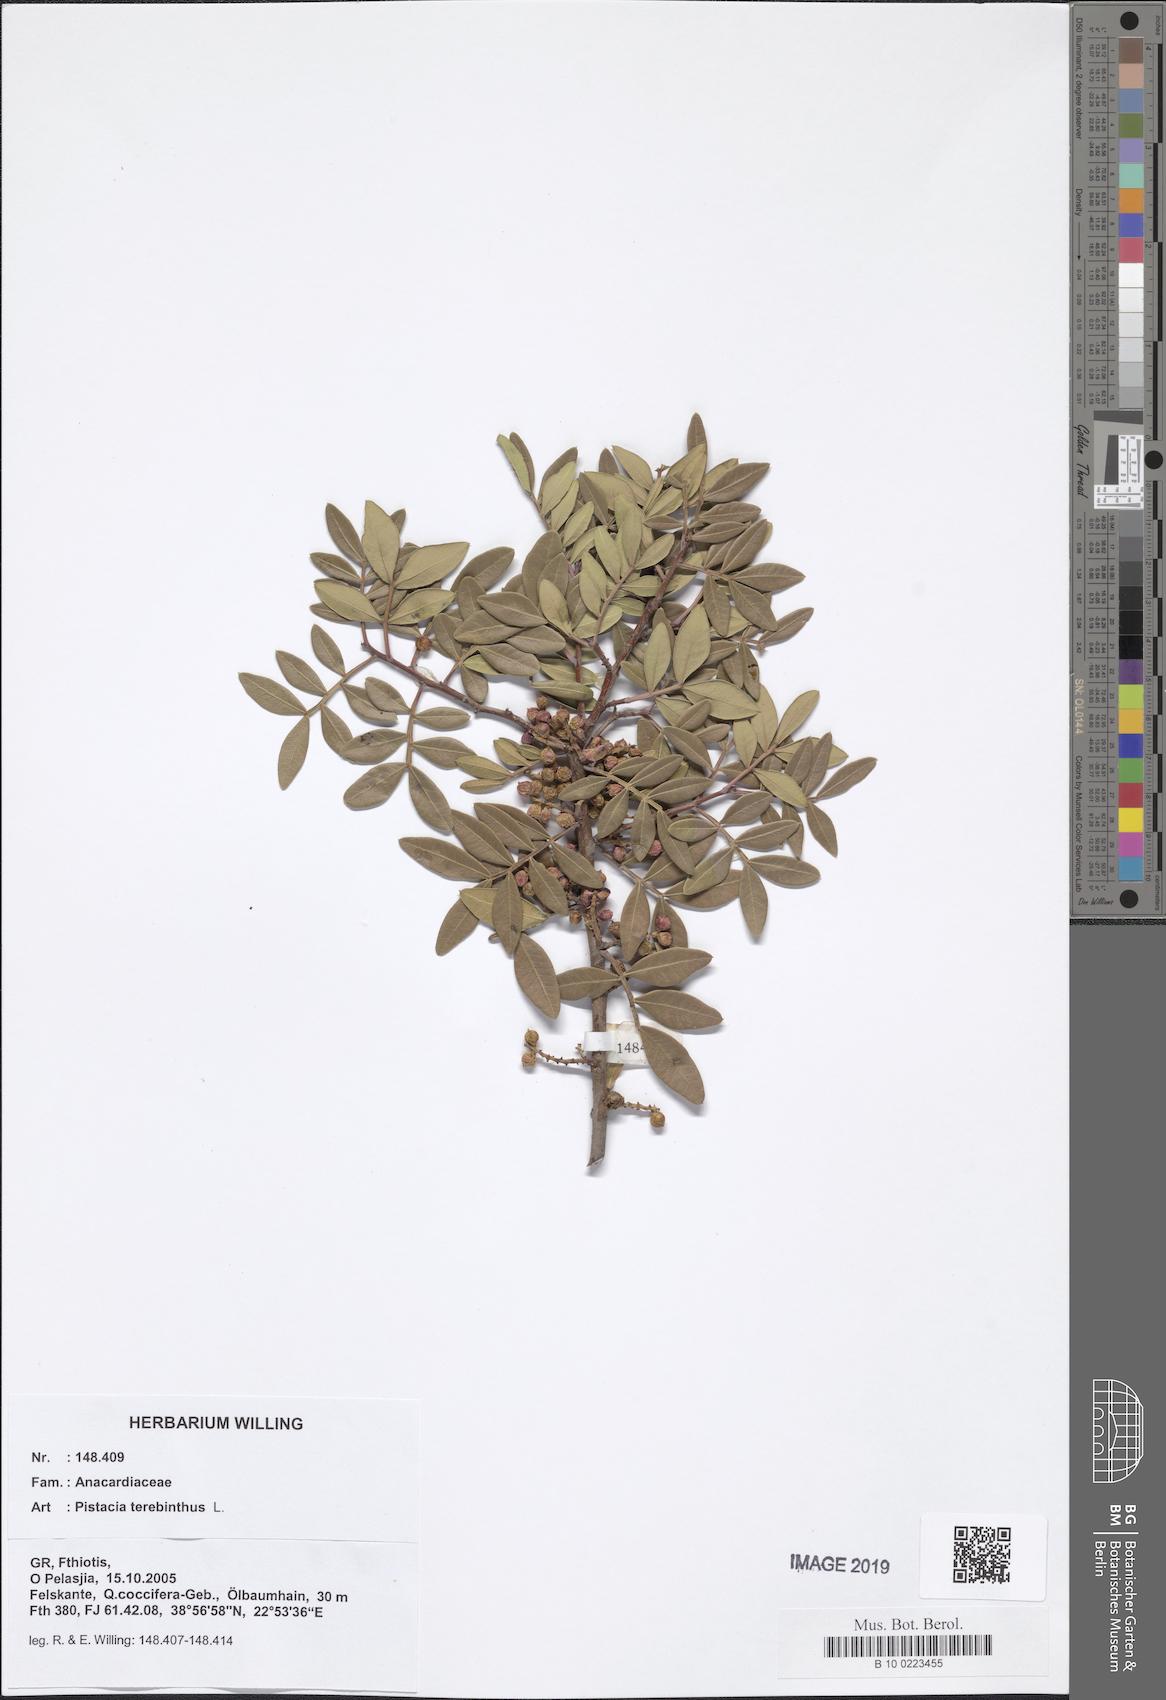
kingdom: Plantae
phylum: Tracheophyta
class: Magnoliopsida
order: Sapindales
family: Anacardiaceae
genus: Pistacia
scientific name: Pistacia terebinthus
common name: Terebinth
